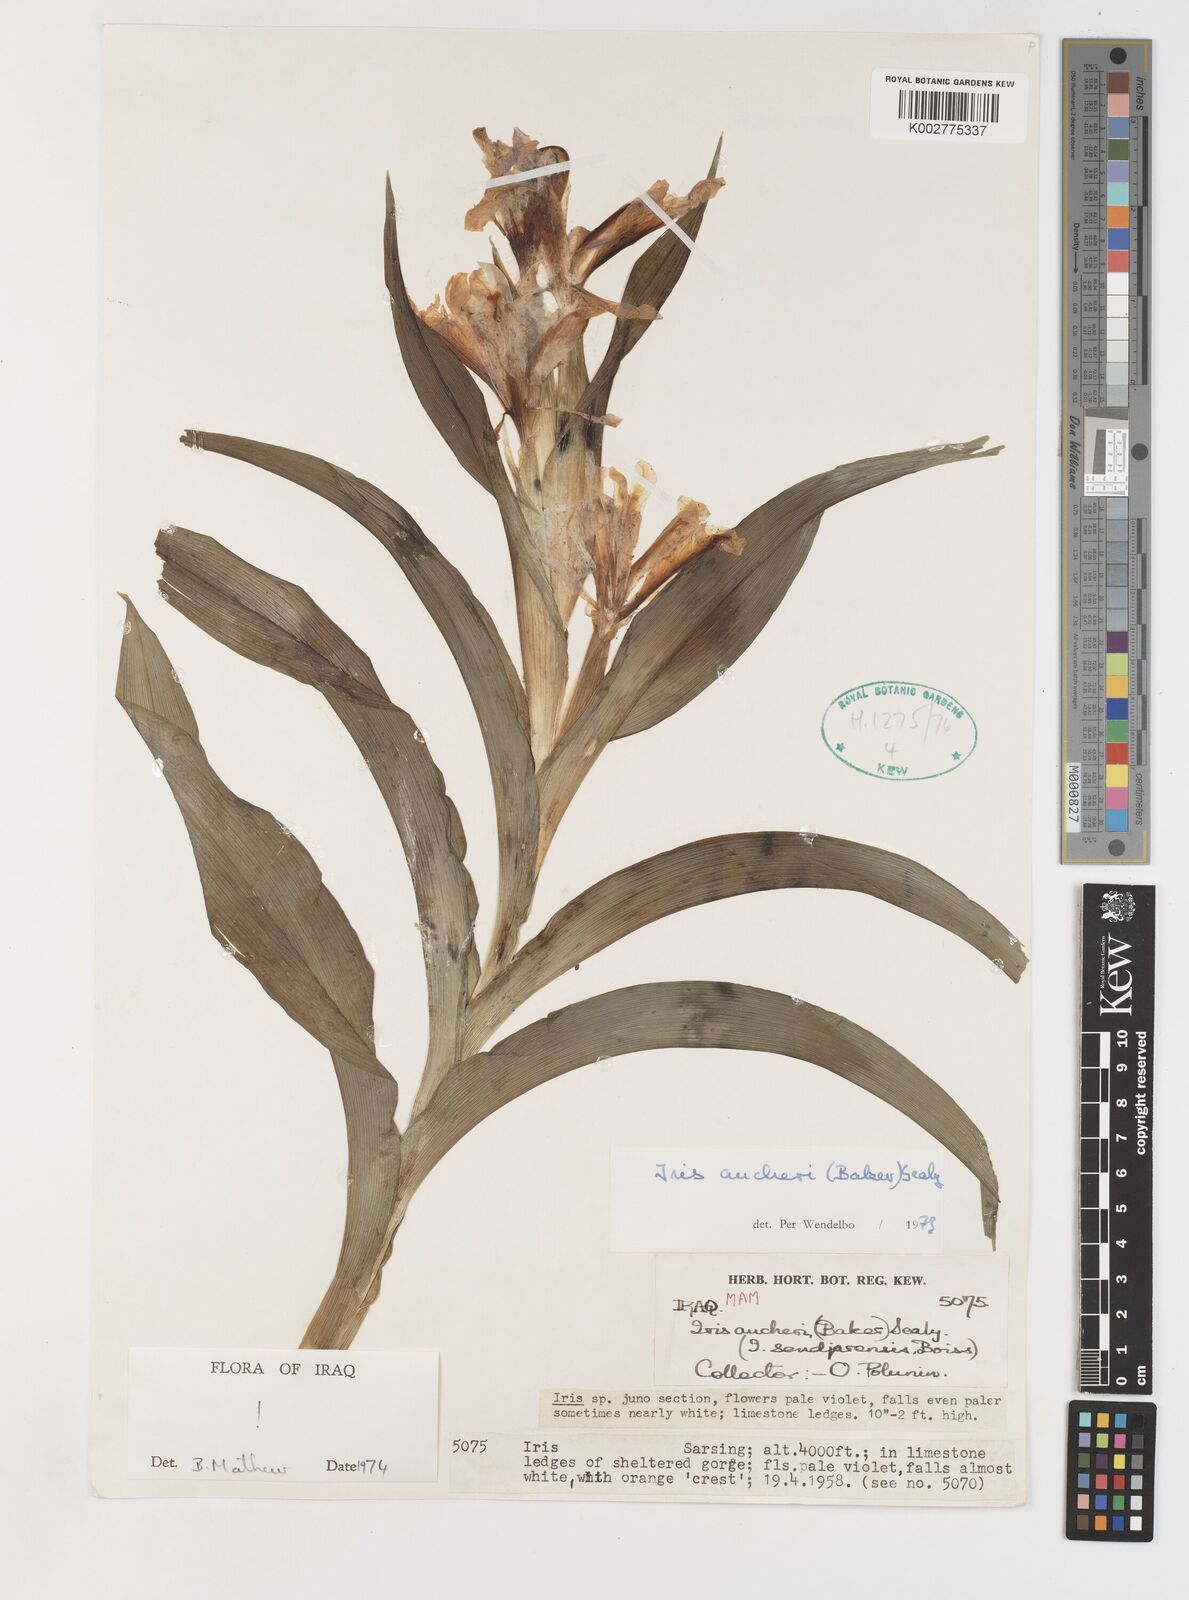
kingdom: Plantae
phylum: Tracheophyta
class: Liliopsida
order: Asparagales
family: Iridaceae
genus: Iris
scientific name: Iris aucheri
